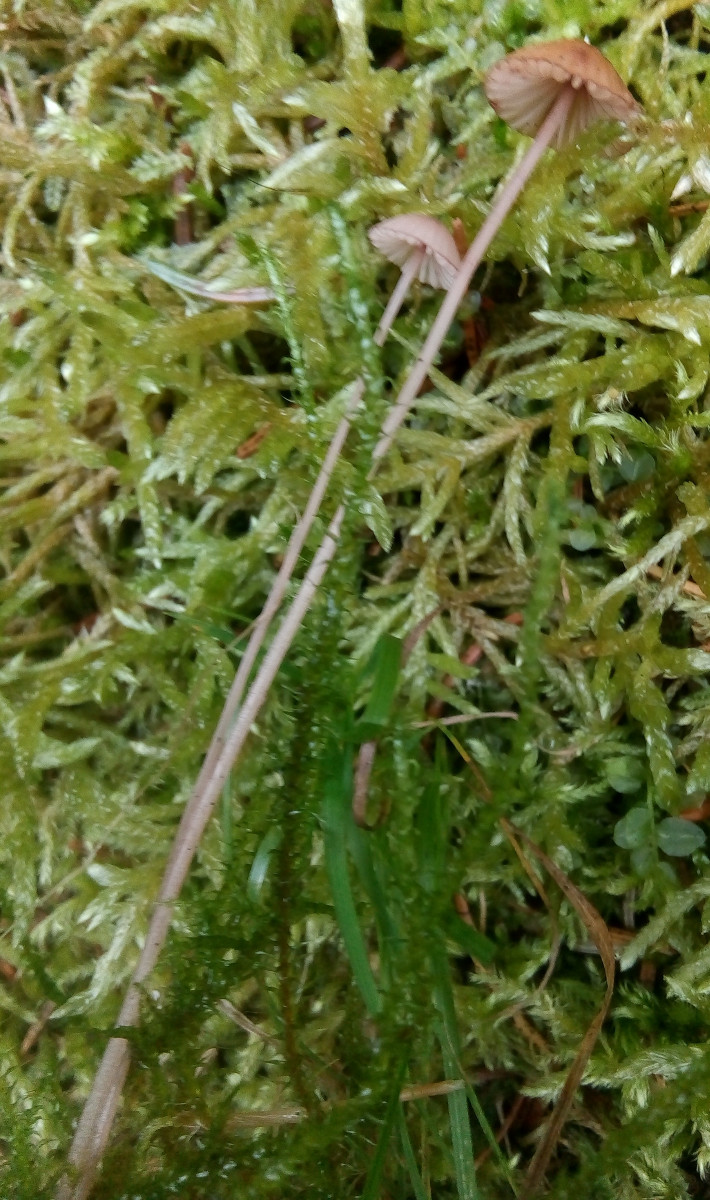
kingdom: Fungi
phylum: Basidiomycota
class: Agaricomycetes
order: Agaricales
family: Mycenaceae
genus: Mycena
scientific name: Mycena sanguinolenta
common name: rødmælket huesvamp
